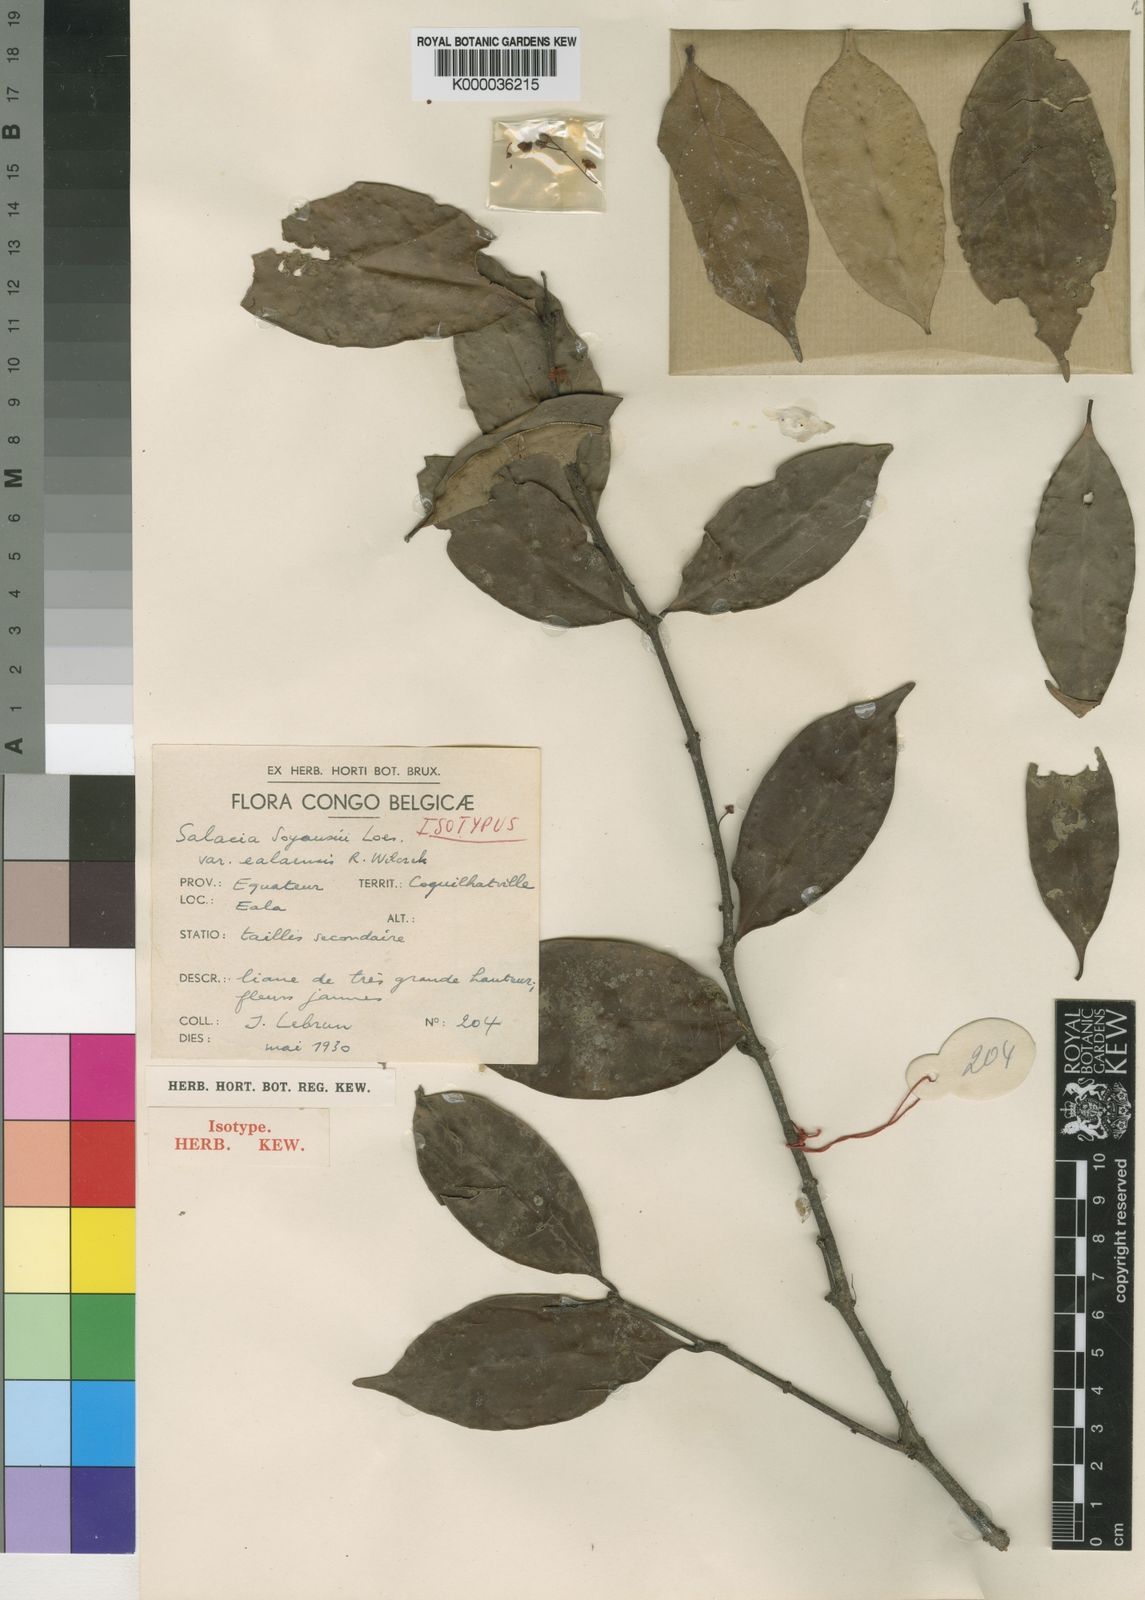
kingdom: Plantae
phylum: Tracheophyta
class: Magnoliopsida
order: Celastrales
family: Celastraceae
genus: Salacia
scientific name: Salacia mannii
